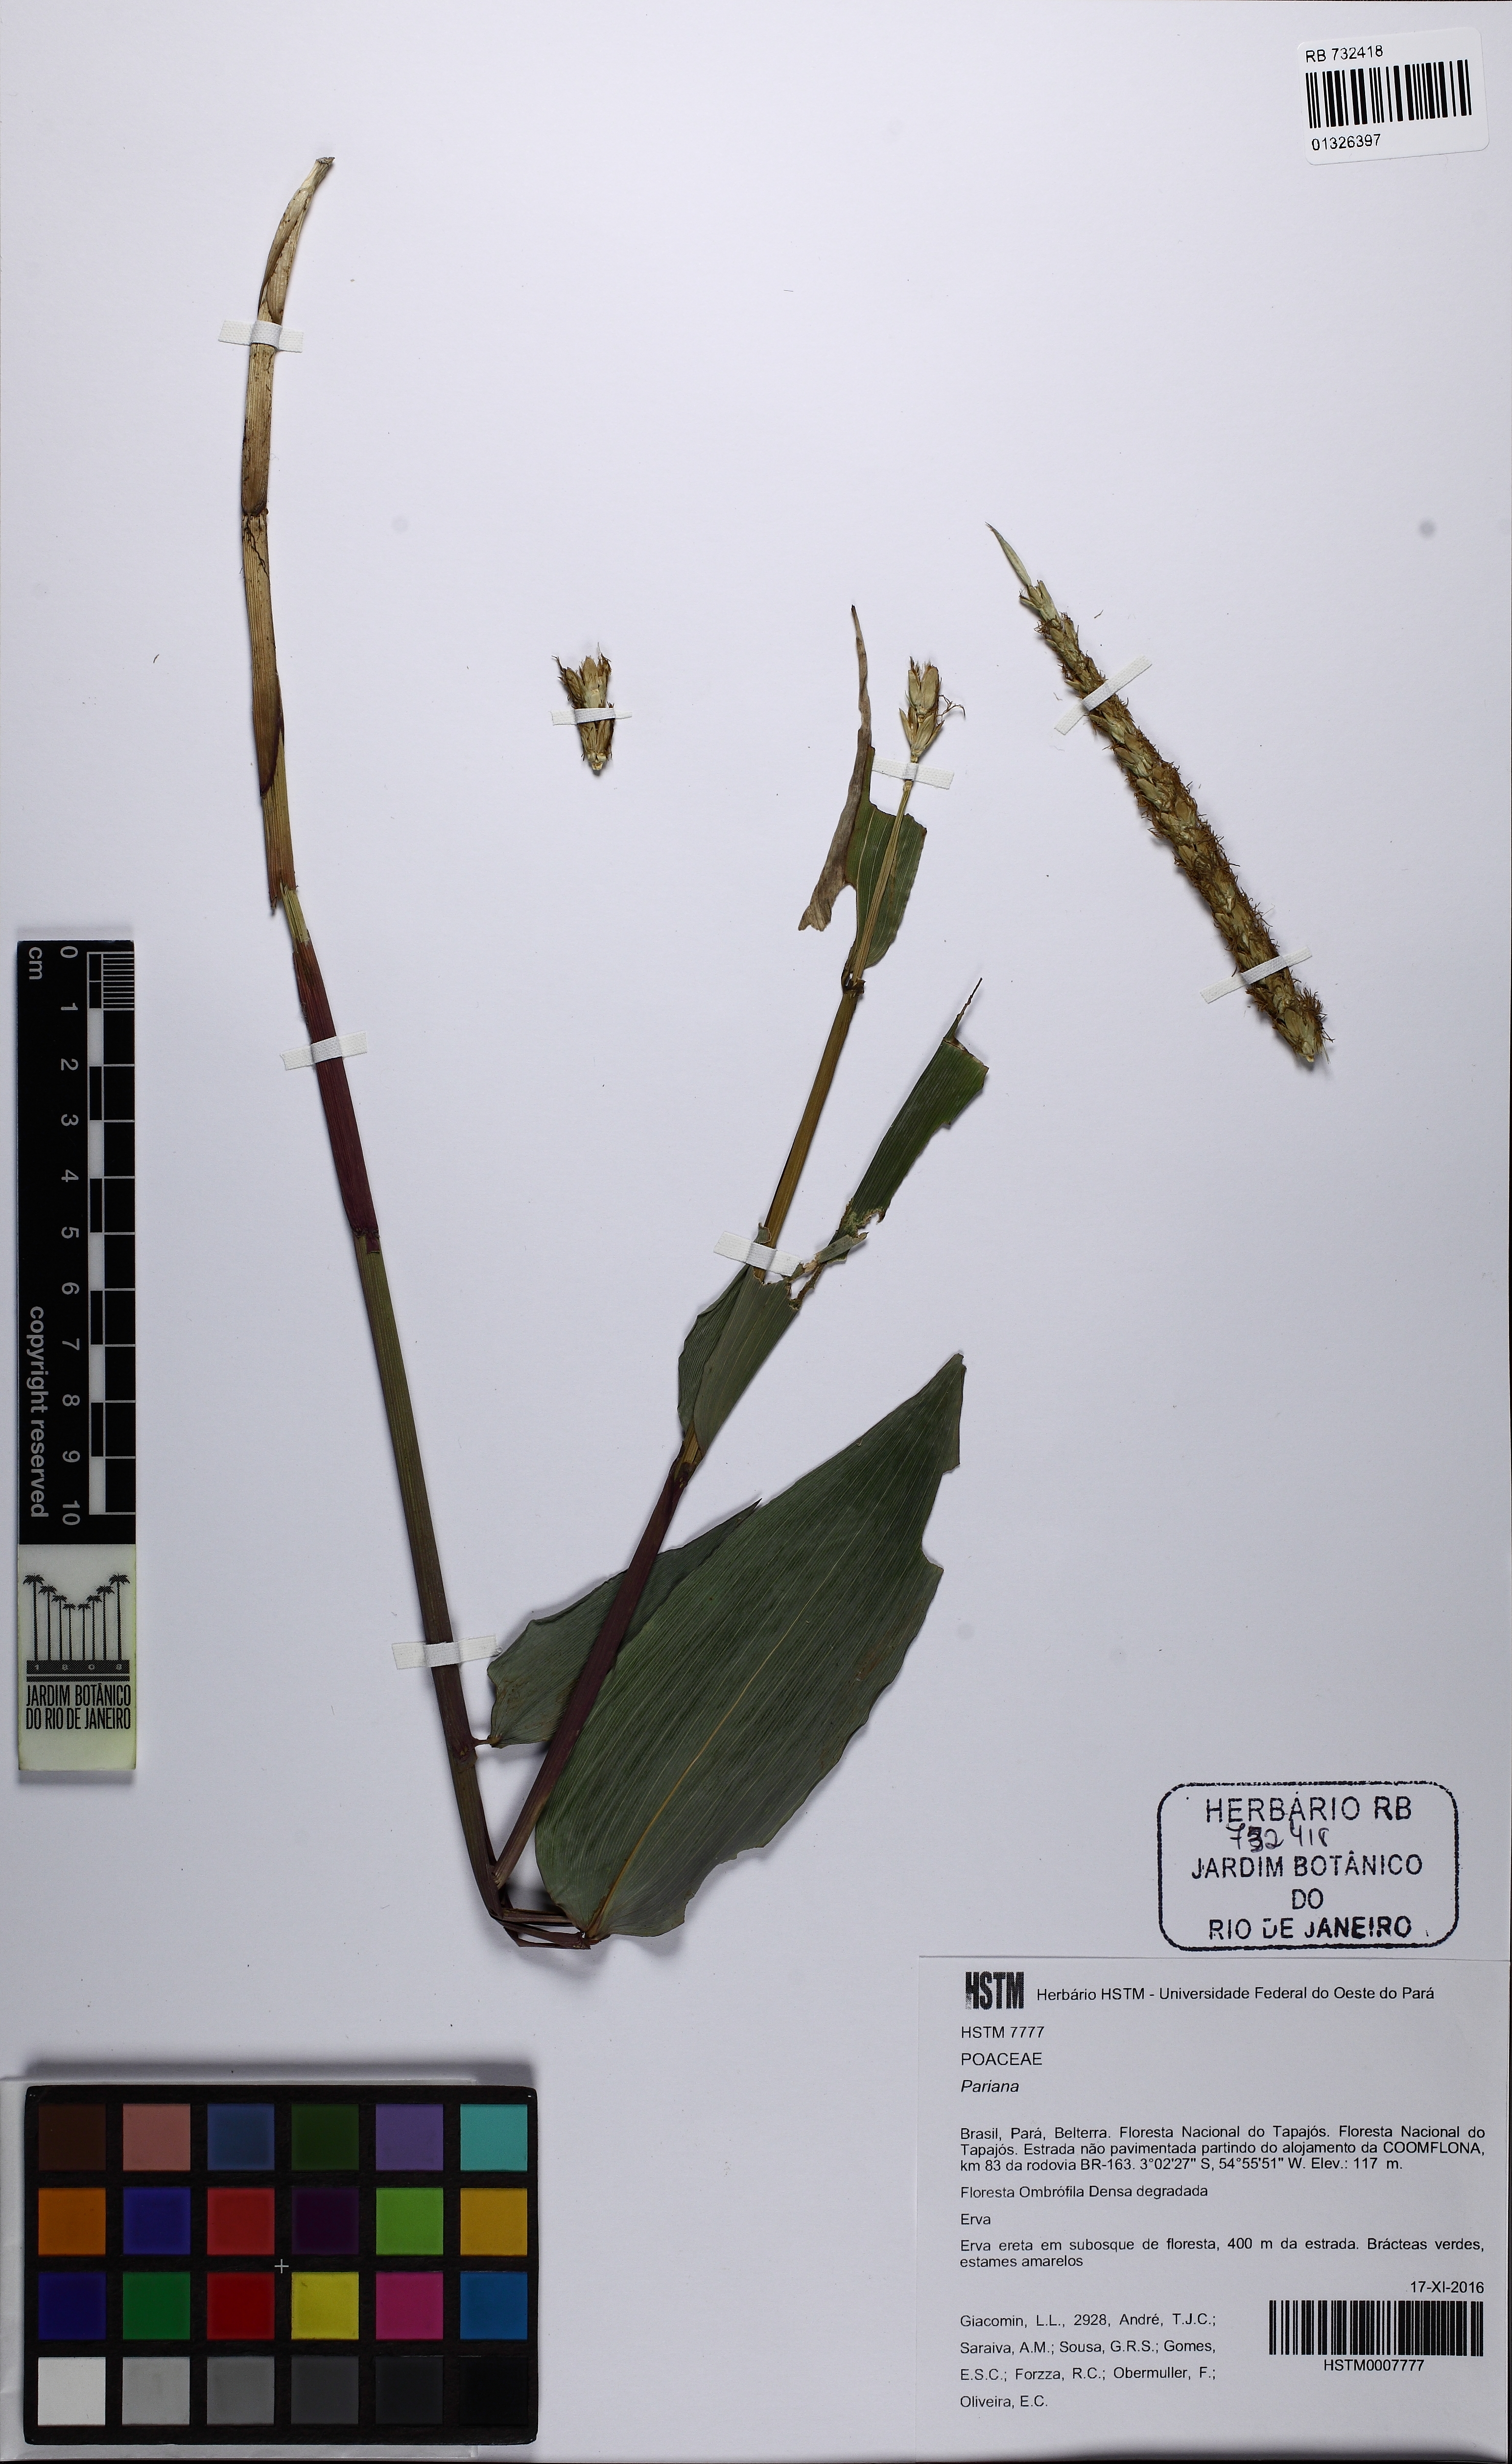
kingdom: Plantae
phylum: Tracheophyta
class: Liliopsida
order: Poales
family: Poaceae
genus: Pariana
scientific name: Pariana
